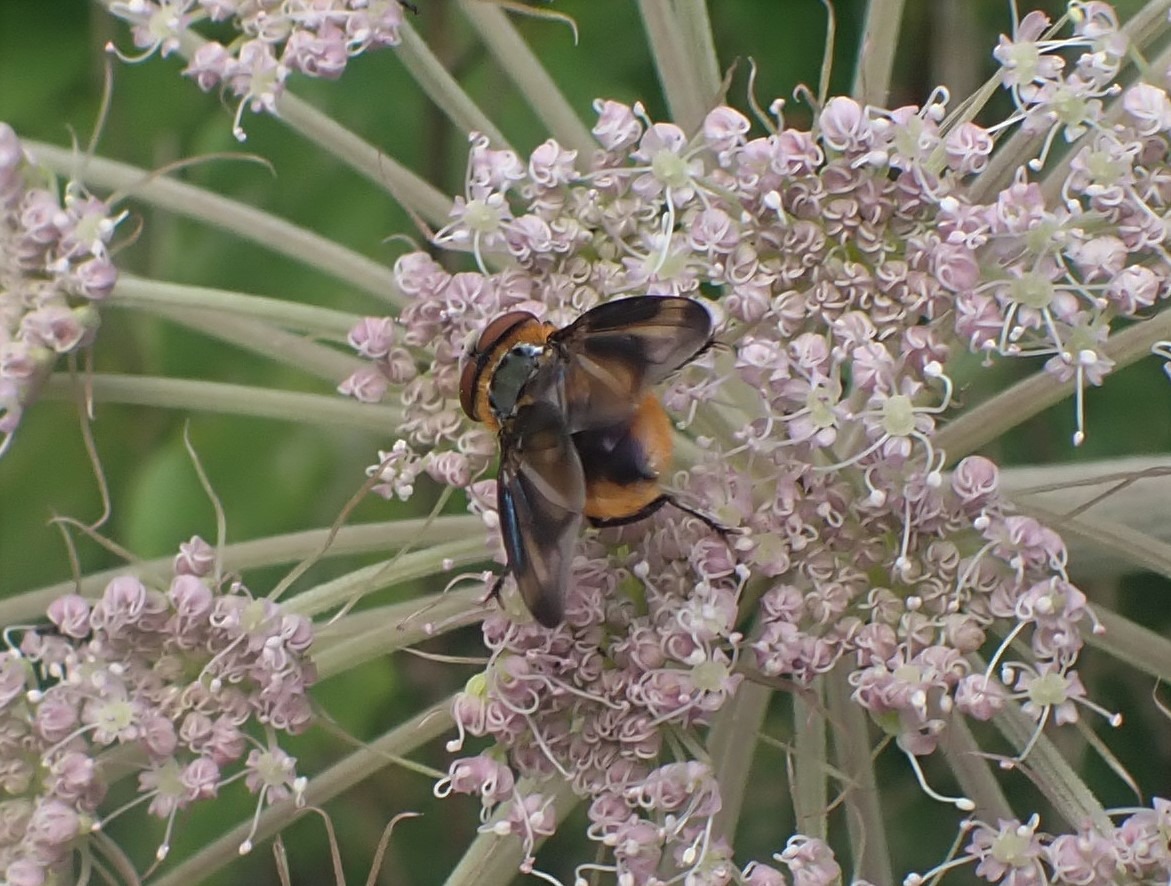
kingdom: Animalia
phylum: Arthropoda
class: Insecta
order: Diptera
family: Tachinidae
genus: Phasia
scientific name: Phasia hemiptera
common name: Blåvinget pragtsnylteflue
